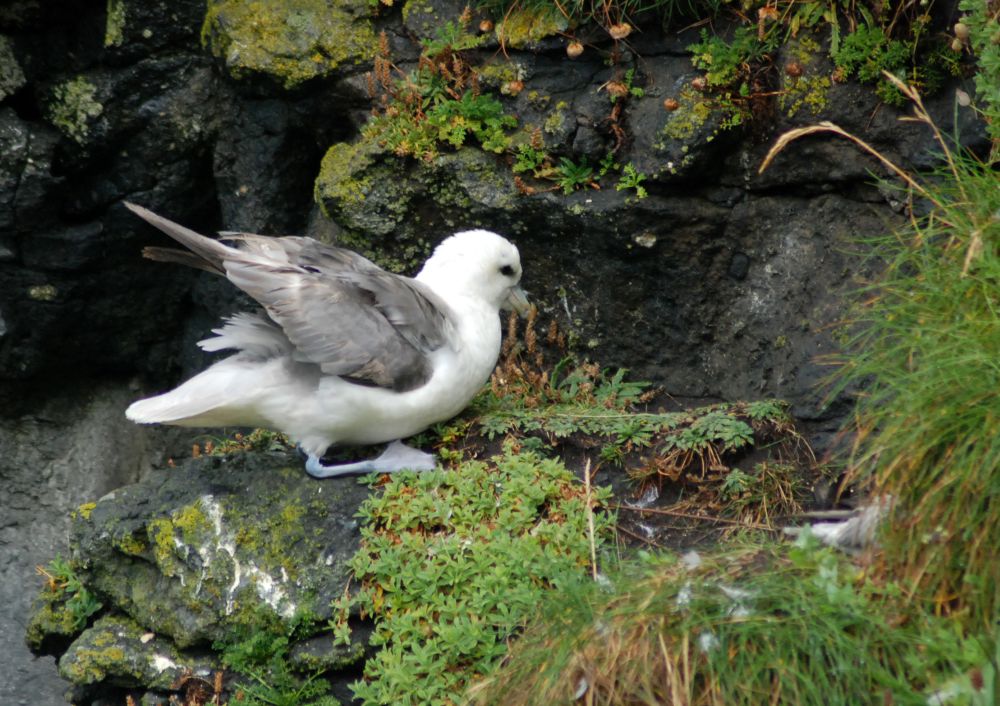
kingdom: Animalia
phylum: Chordata
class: Aves
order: Procellariiformes
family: Procellariidae
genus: Fulmarus
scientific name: Fulmarus glacialis
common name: Northern fulmar
